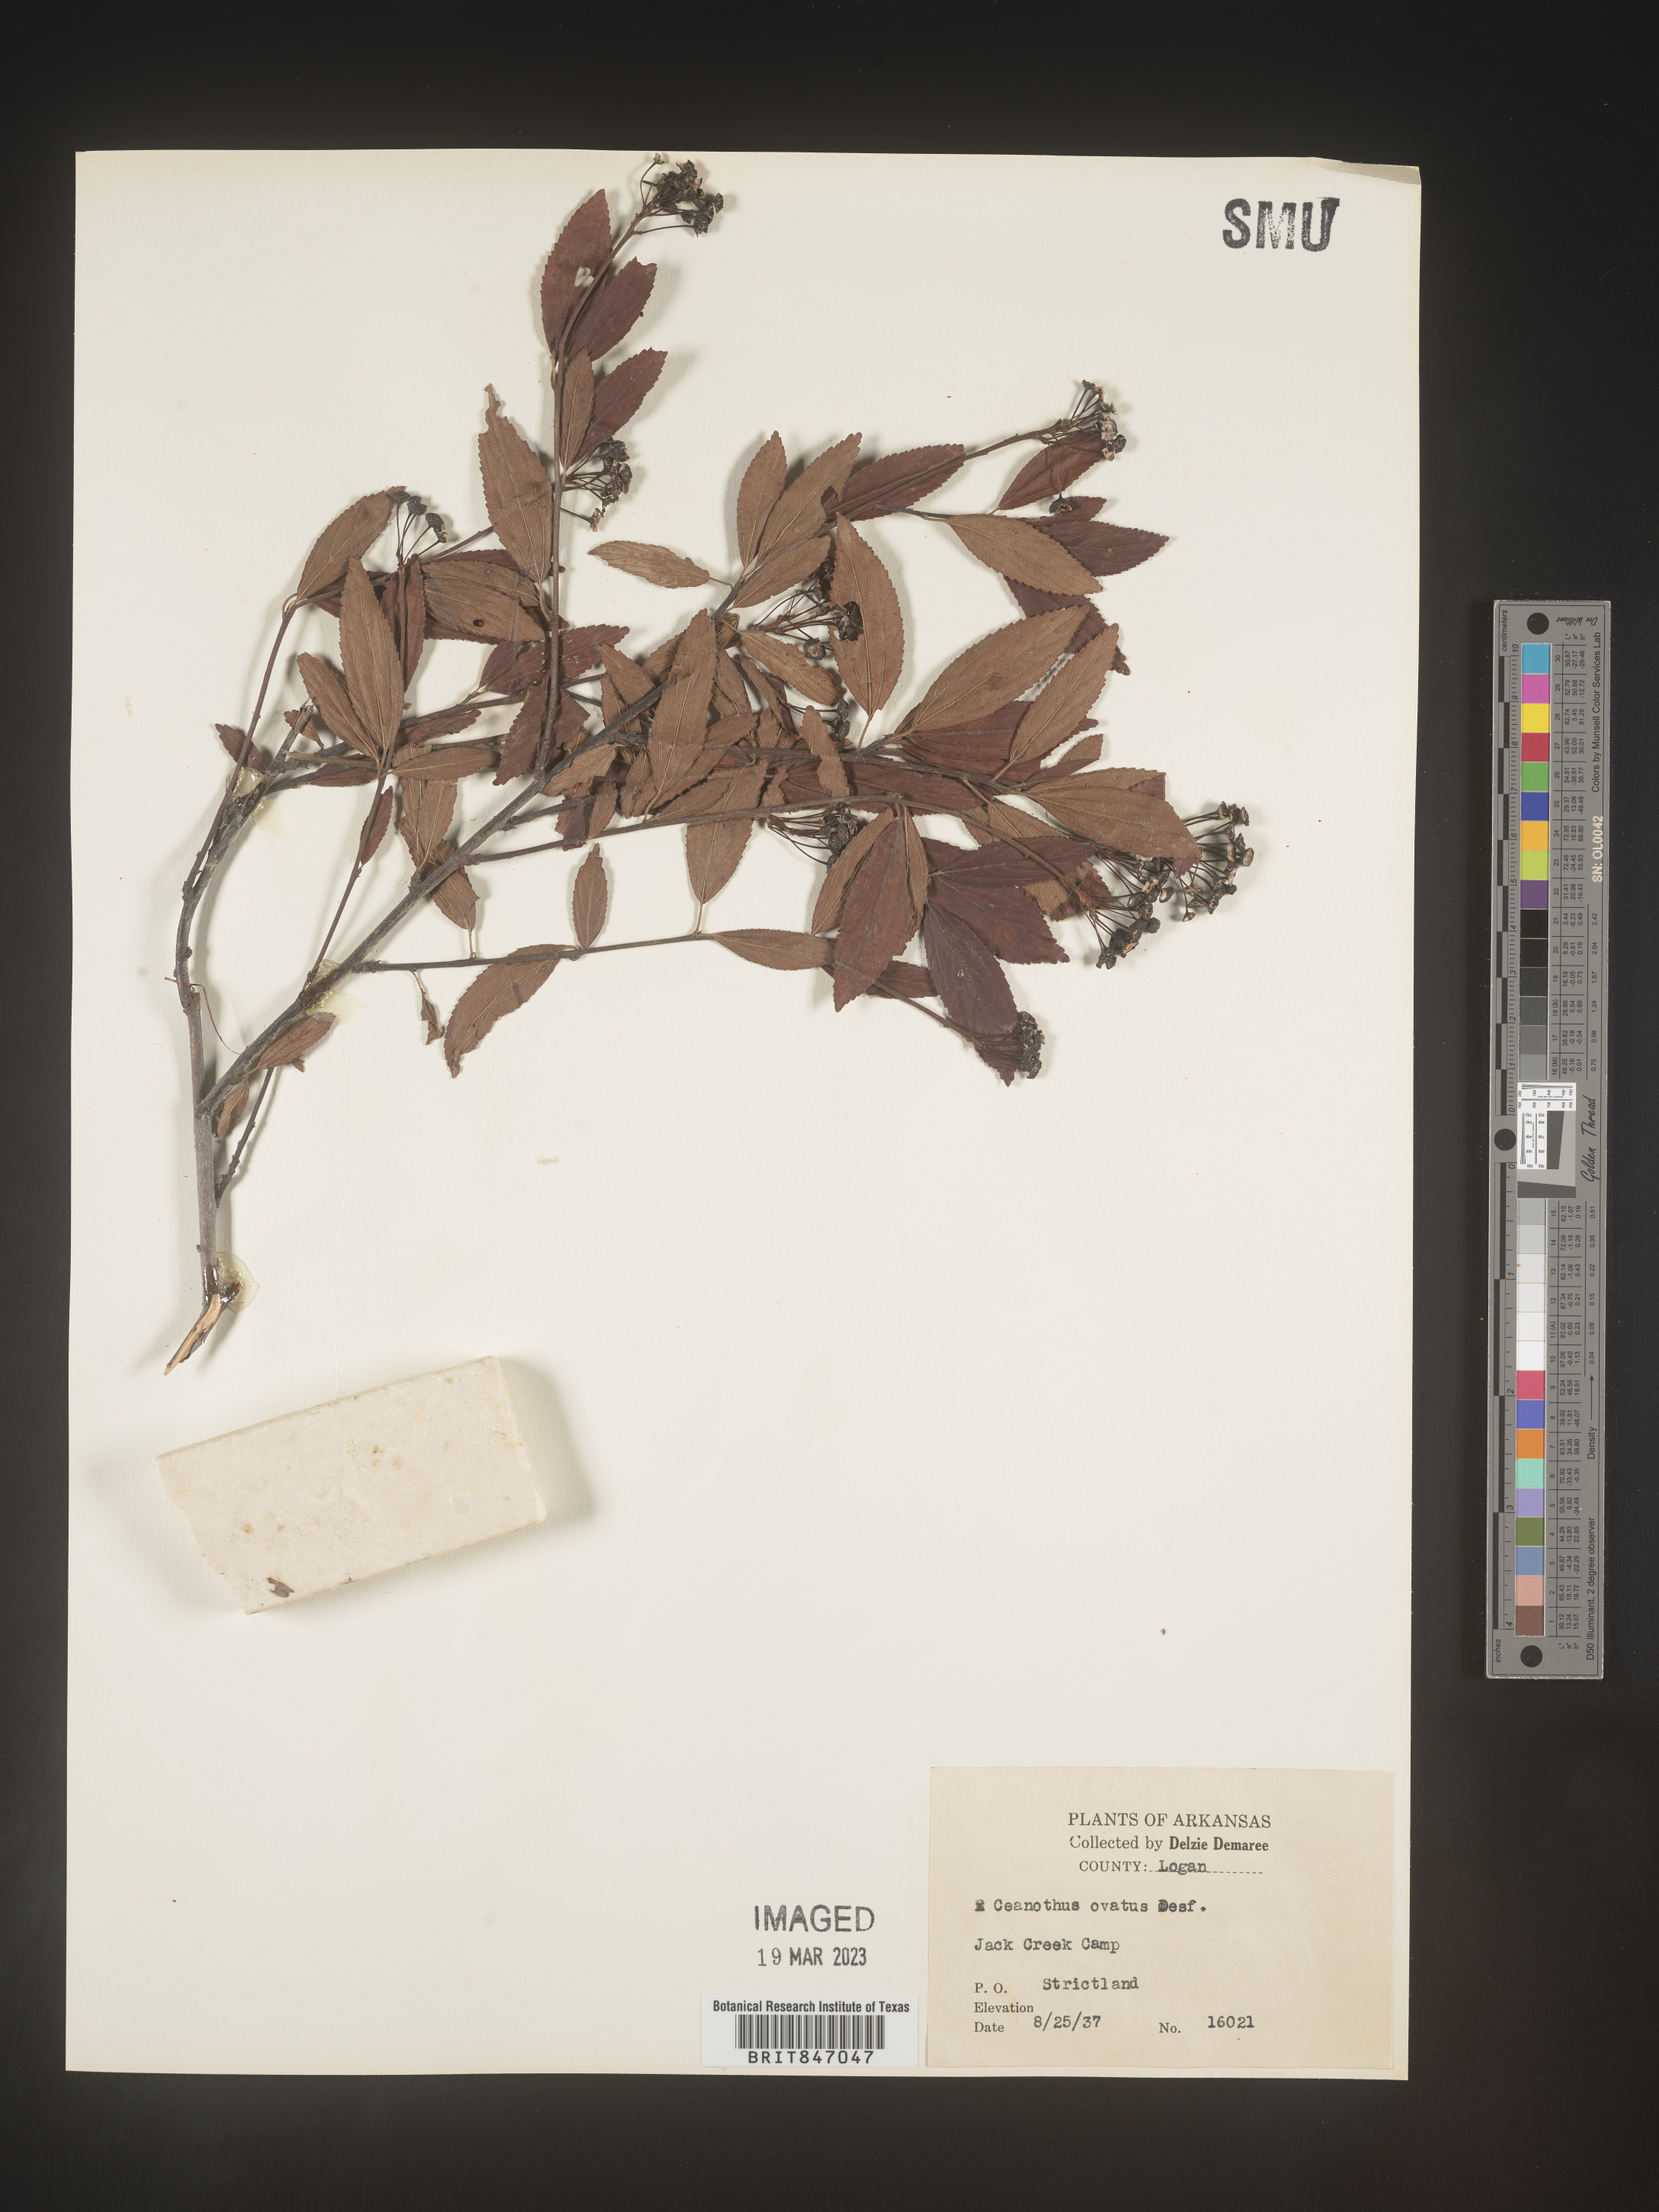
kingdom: Plantae
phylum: Tracheophyta
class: Magnoliopsida
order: Rosales
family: Rhamnaceae
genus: Ceanothus
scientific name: Ceanothus herbaceus
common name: Inland ceanothus
